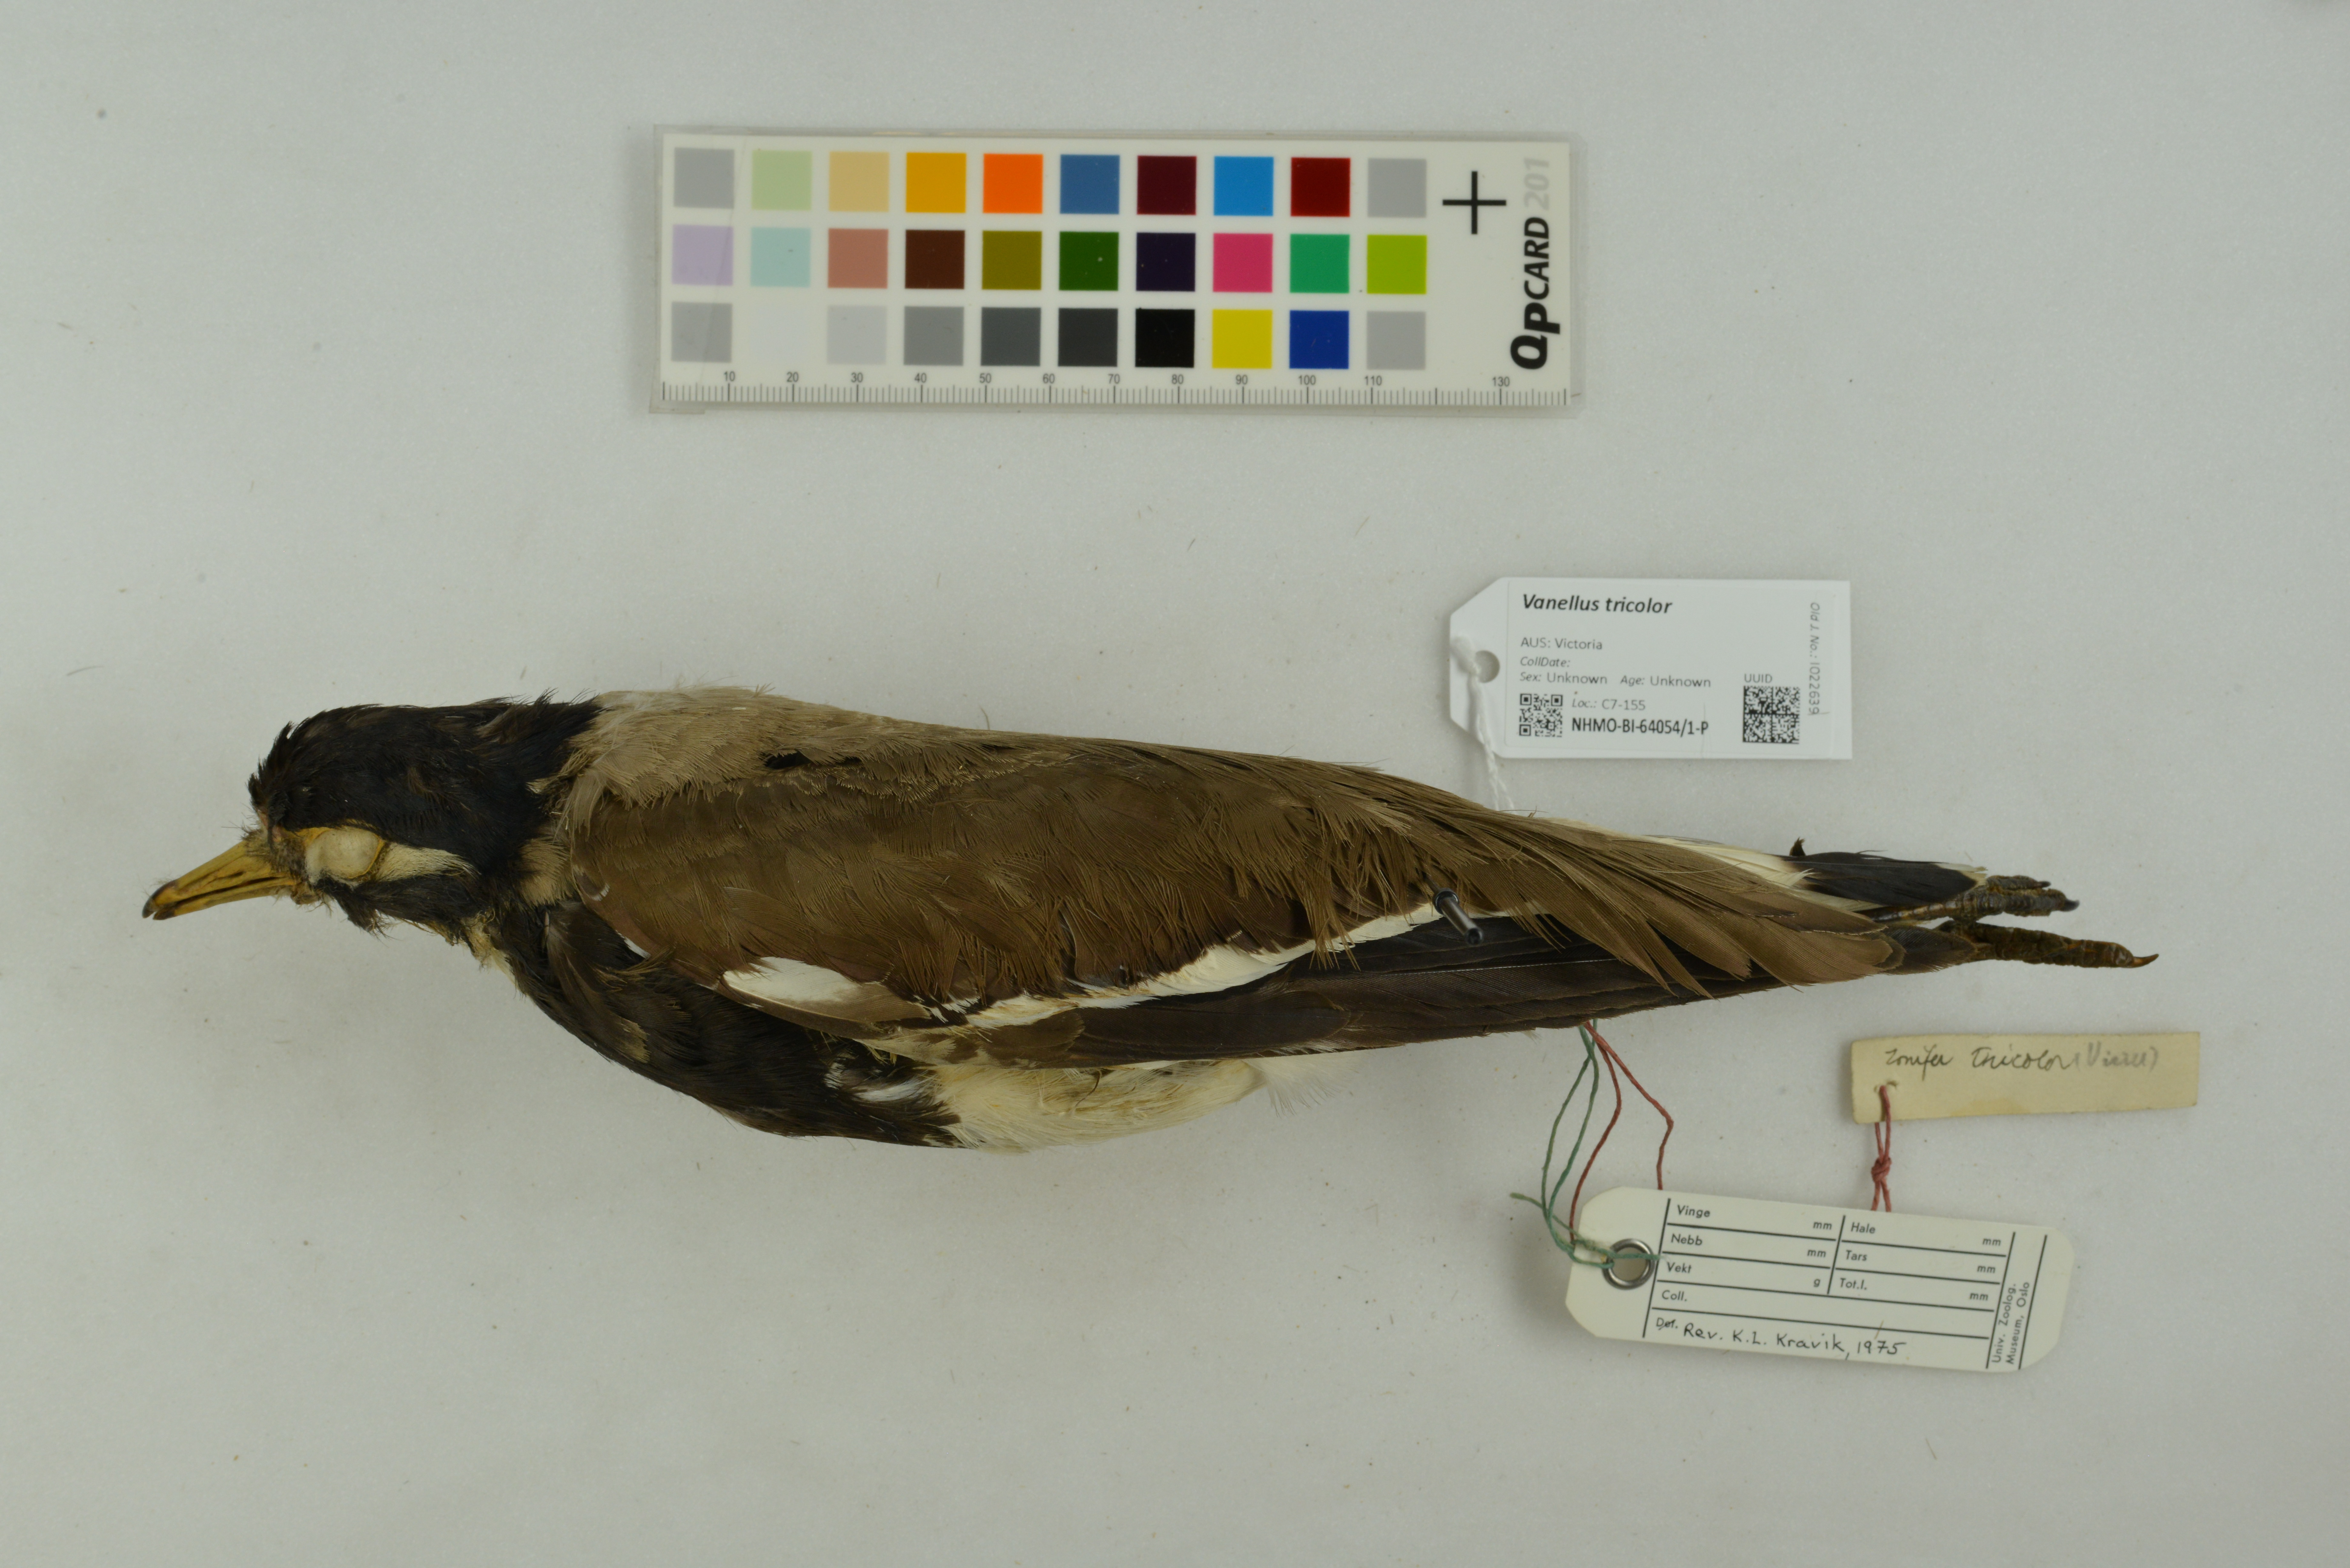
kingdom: Animalia
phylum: Chordata
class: Aves
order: Charadriiformes
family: Charadriidae
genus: Vanellus
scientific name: Vanellus tricolor
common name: Banded lapwing
